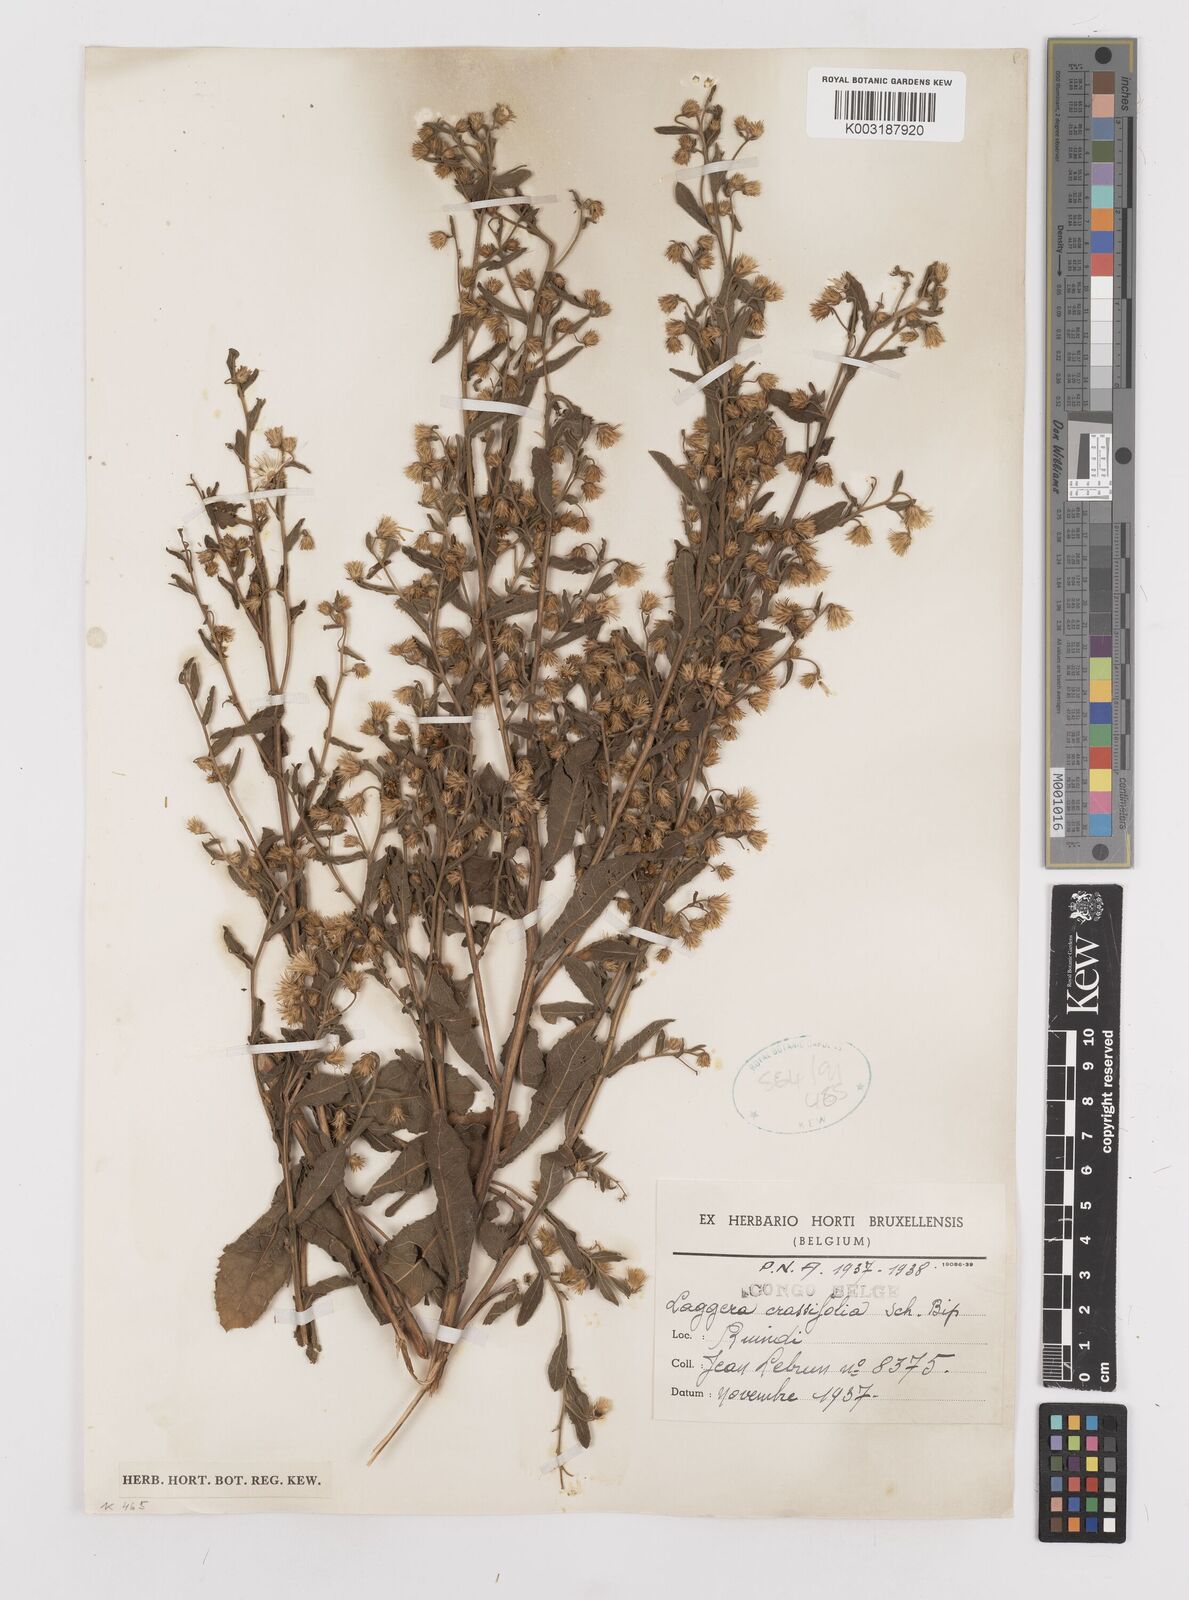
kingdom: Plantae
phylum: Tracheophyta
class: Magnoliopsida
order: Asterales
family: Asteraceae
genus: Laggera
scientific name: Laggera crassifolia
